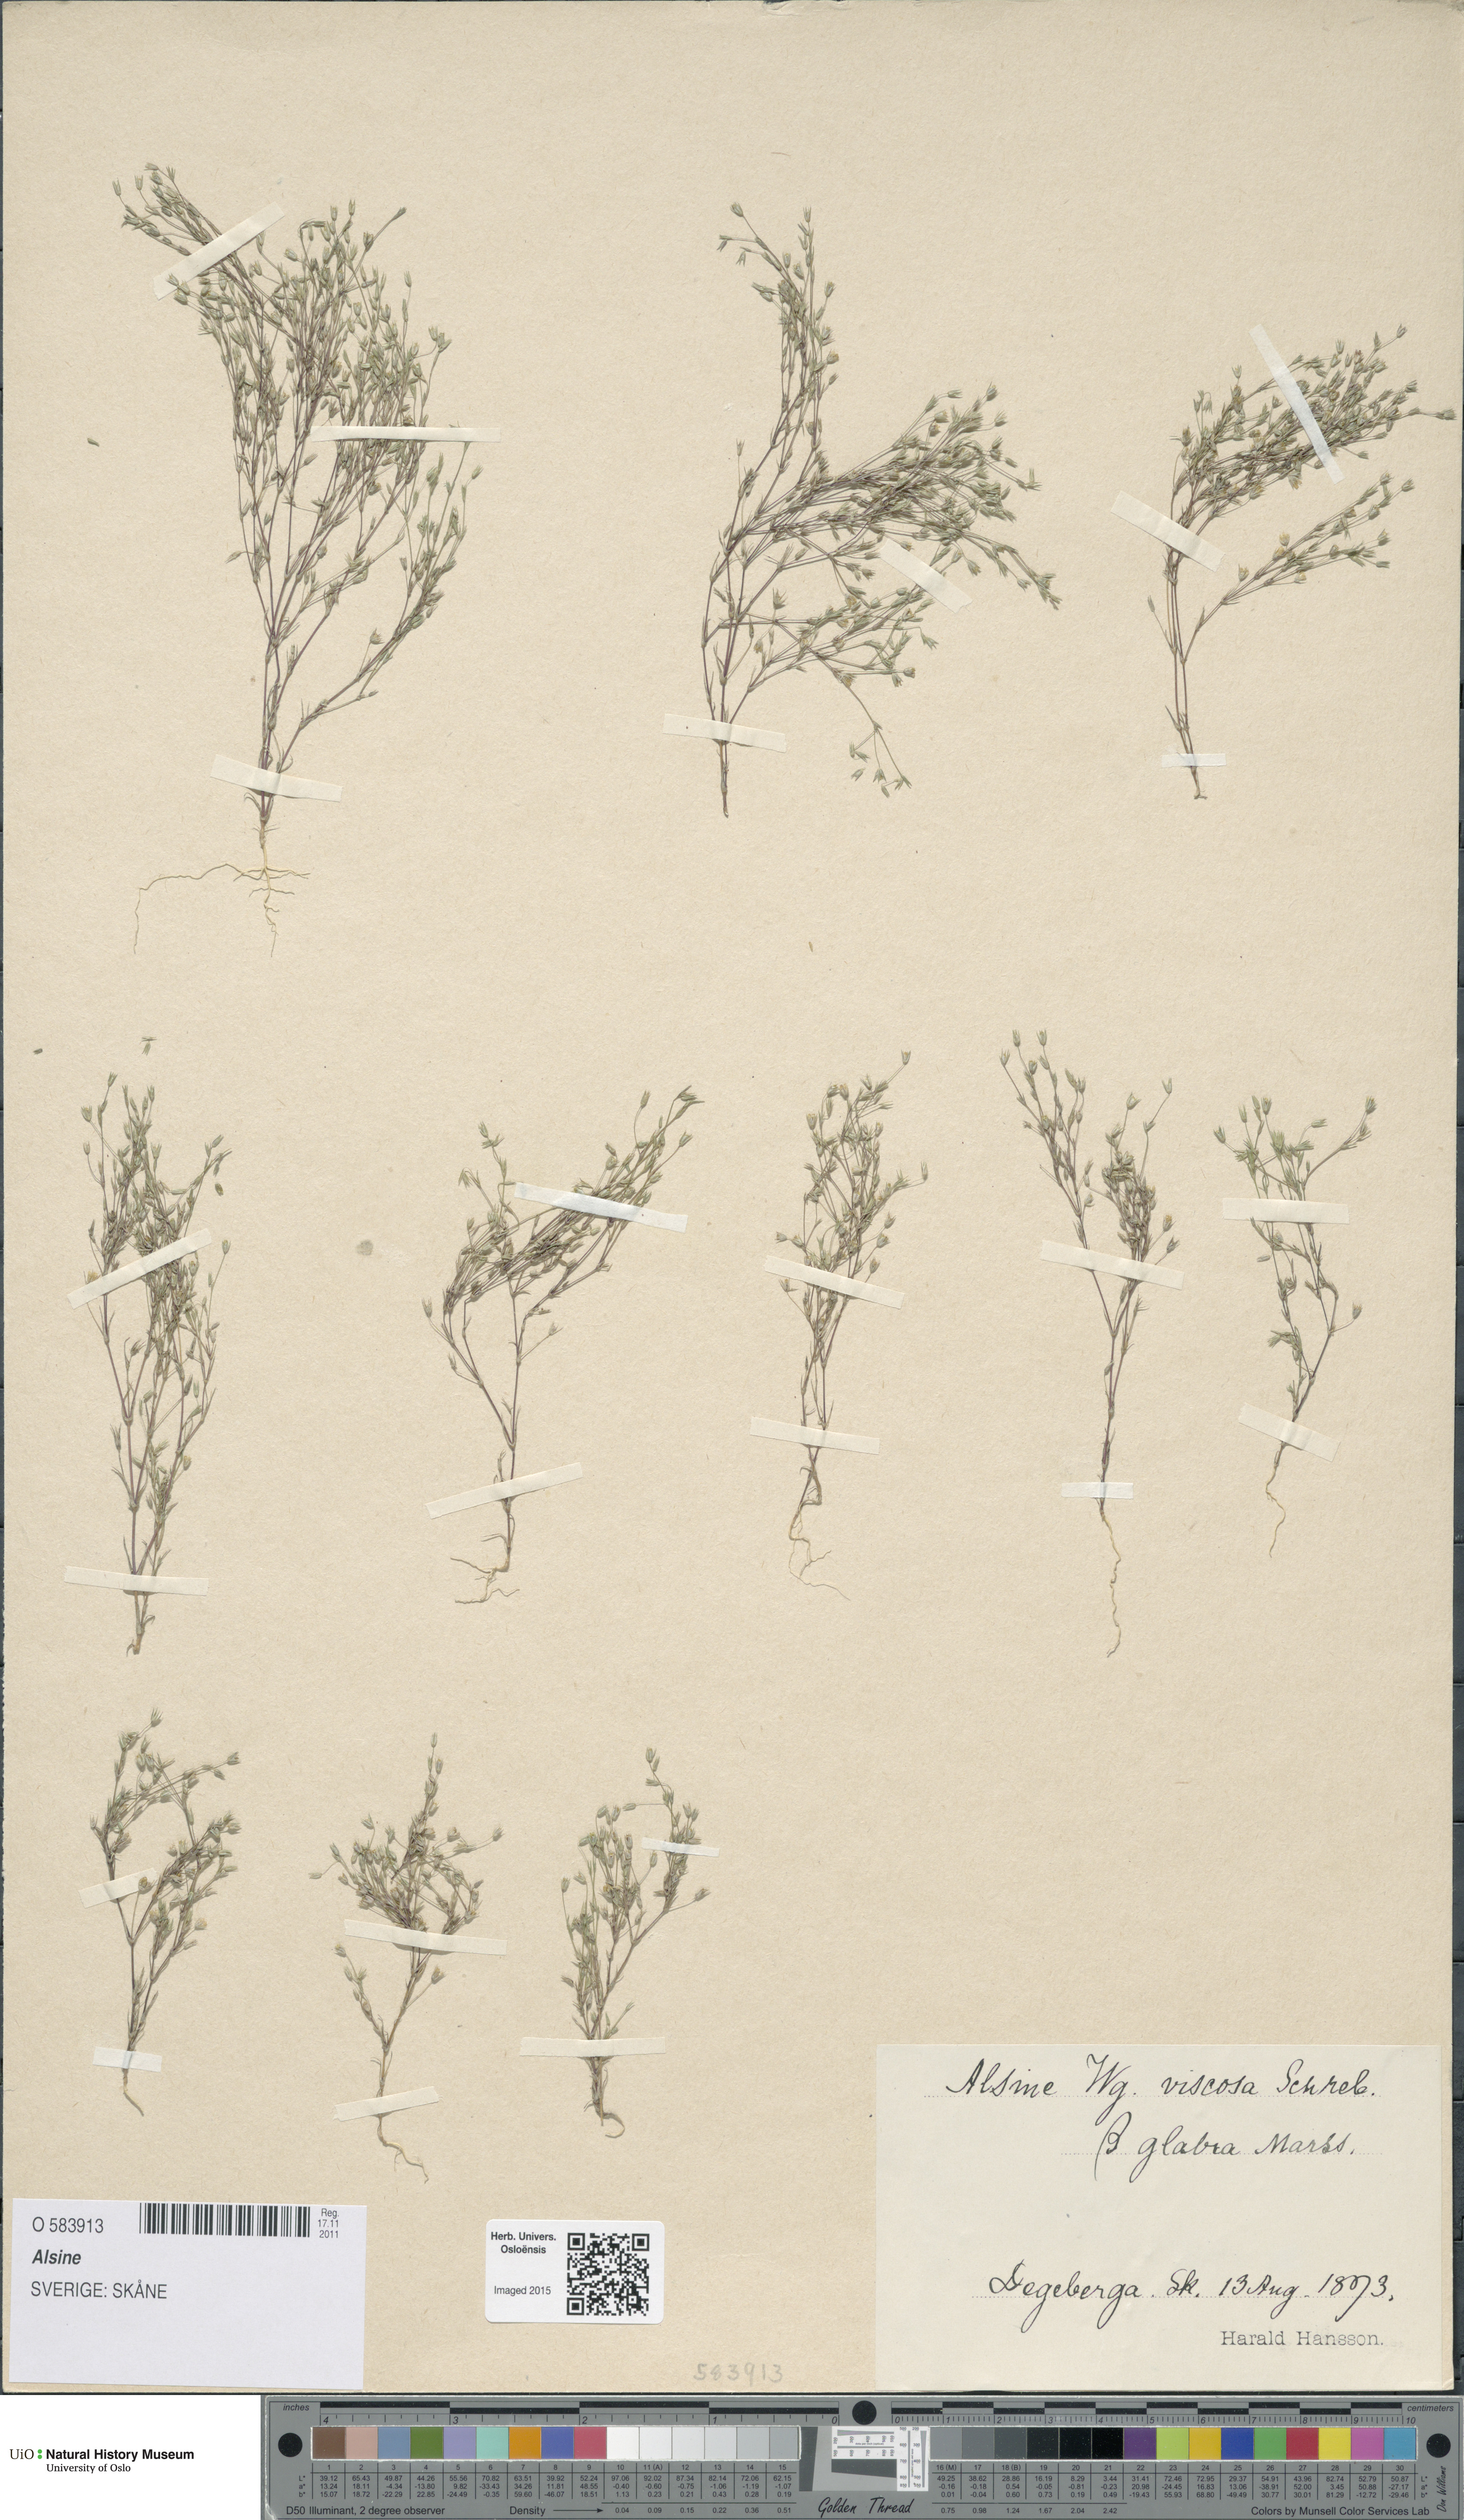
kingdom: Plantae
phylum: Tracheophyta
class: Magnoliopsida
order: Caryophyllales
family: Caryophyllaceae
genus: Alsine
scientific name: Alsine
